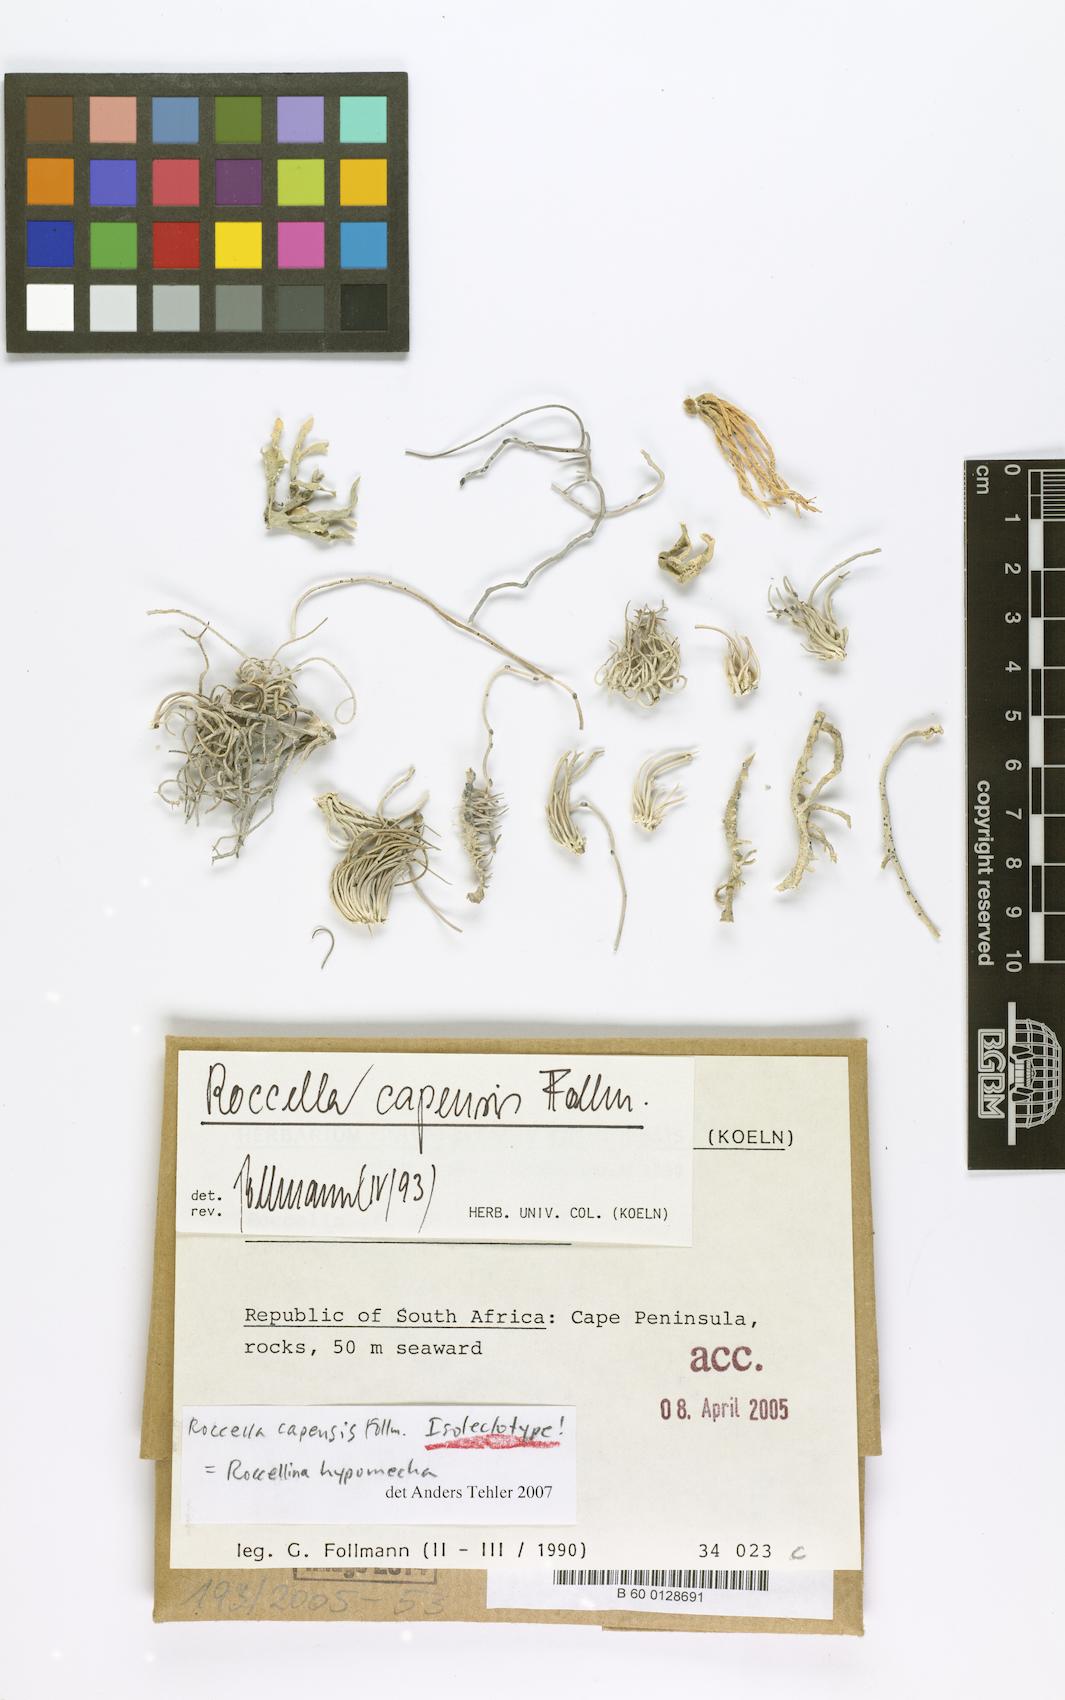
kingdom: Fungi
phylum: Ascomycota
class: Arthoniomycetes
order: Arthoniales
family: Roccellaceae
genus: Roccellina
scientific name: Roccellina capensis
